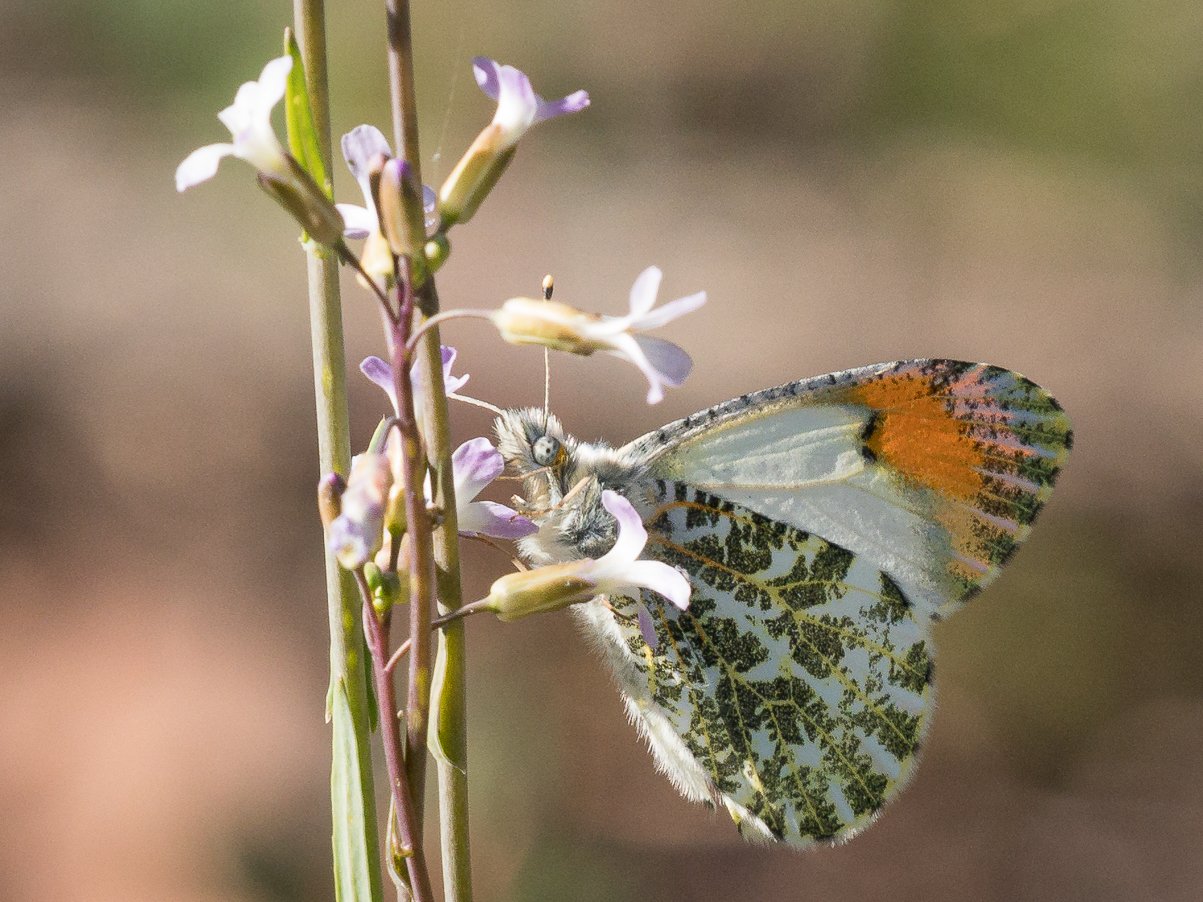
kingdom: Animalia
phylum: Arthropoda
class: Insecta
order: Lepidoptera
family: Pieridae
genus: Anthocharis
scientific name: Anthocharis sara
